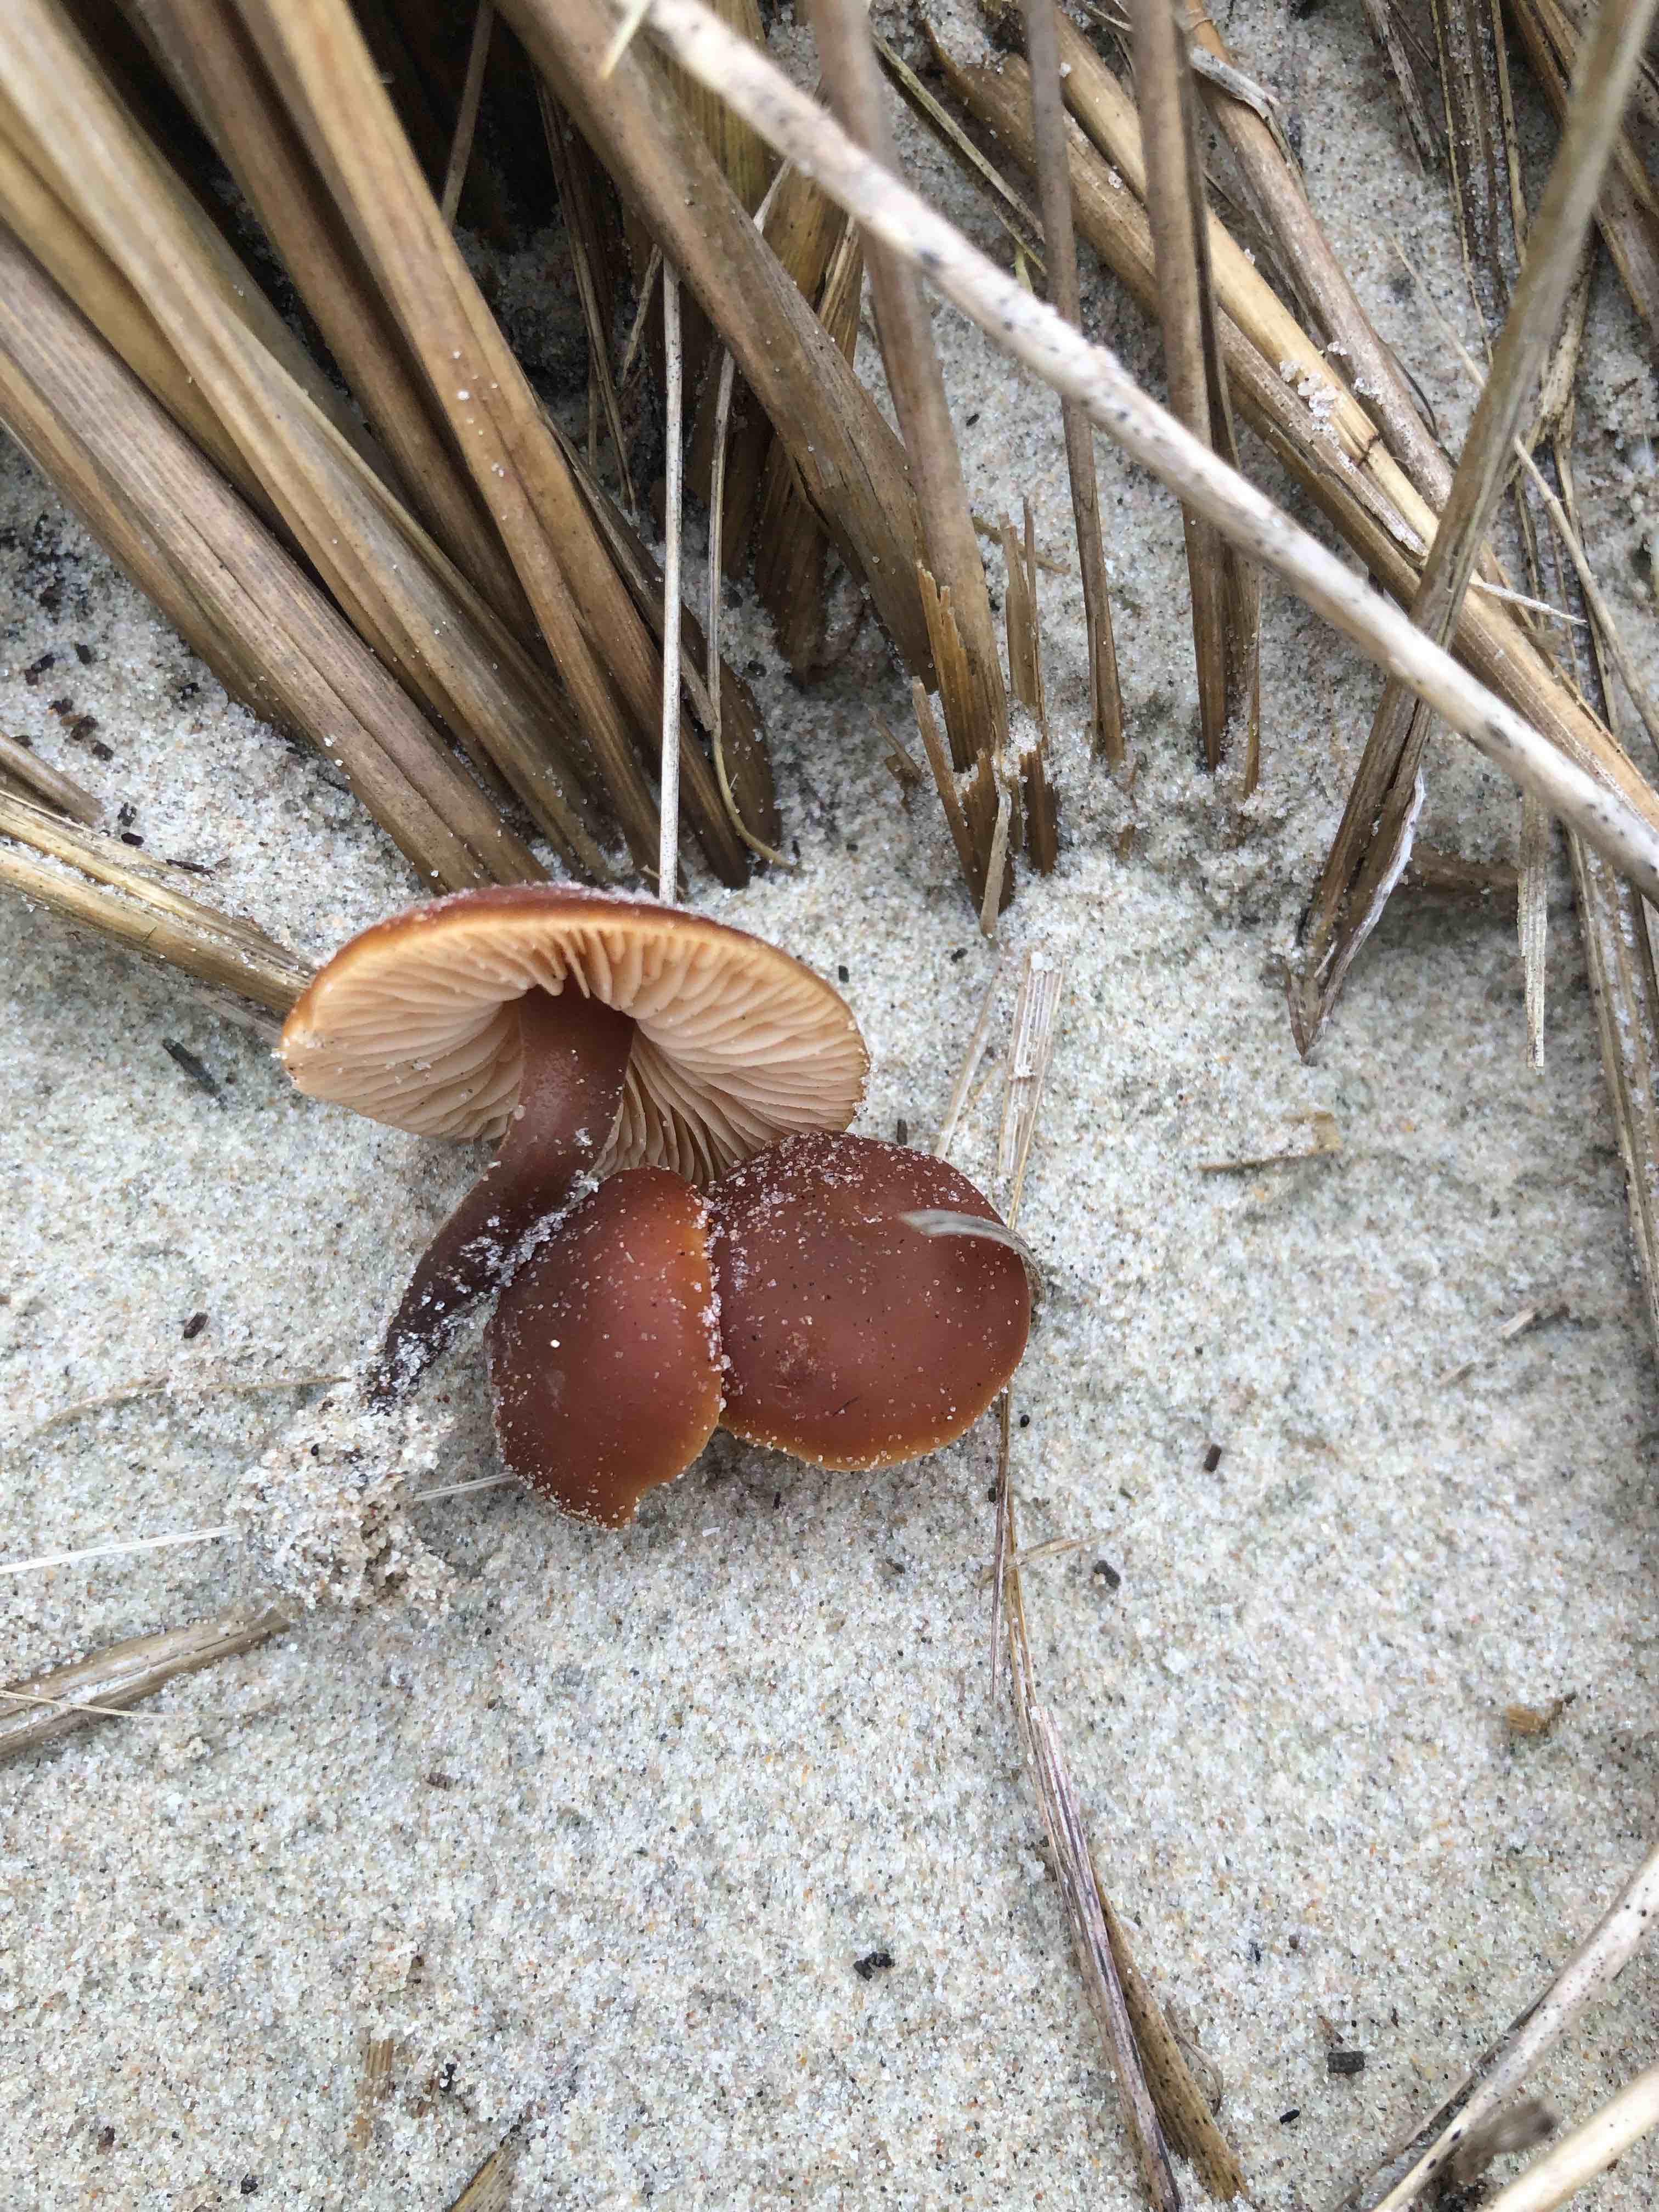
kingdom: Fungi
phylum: Basidiomycota
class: Agaricomycetes
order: Agaricales
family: Macrocystidiaceae
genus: Macrocystidia
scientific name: Macrocystidia cucumis
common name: agurkehat
